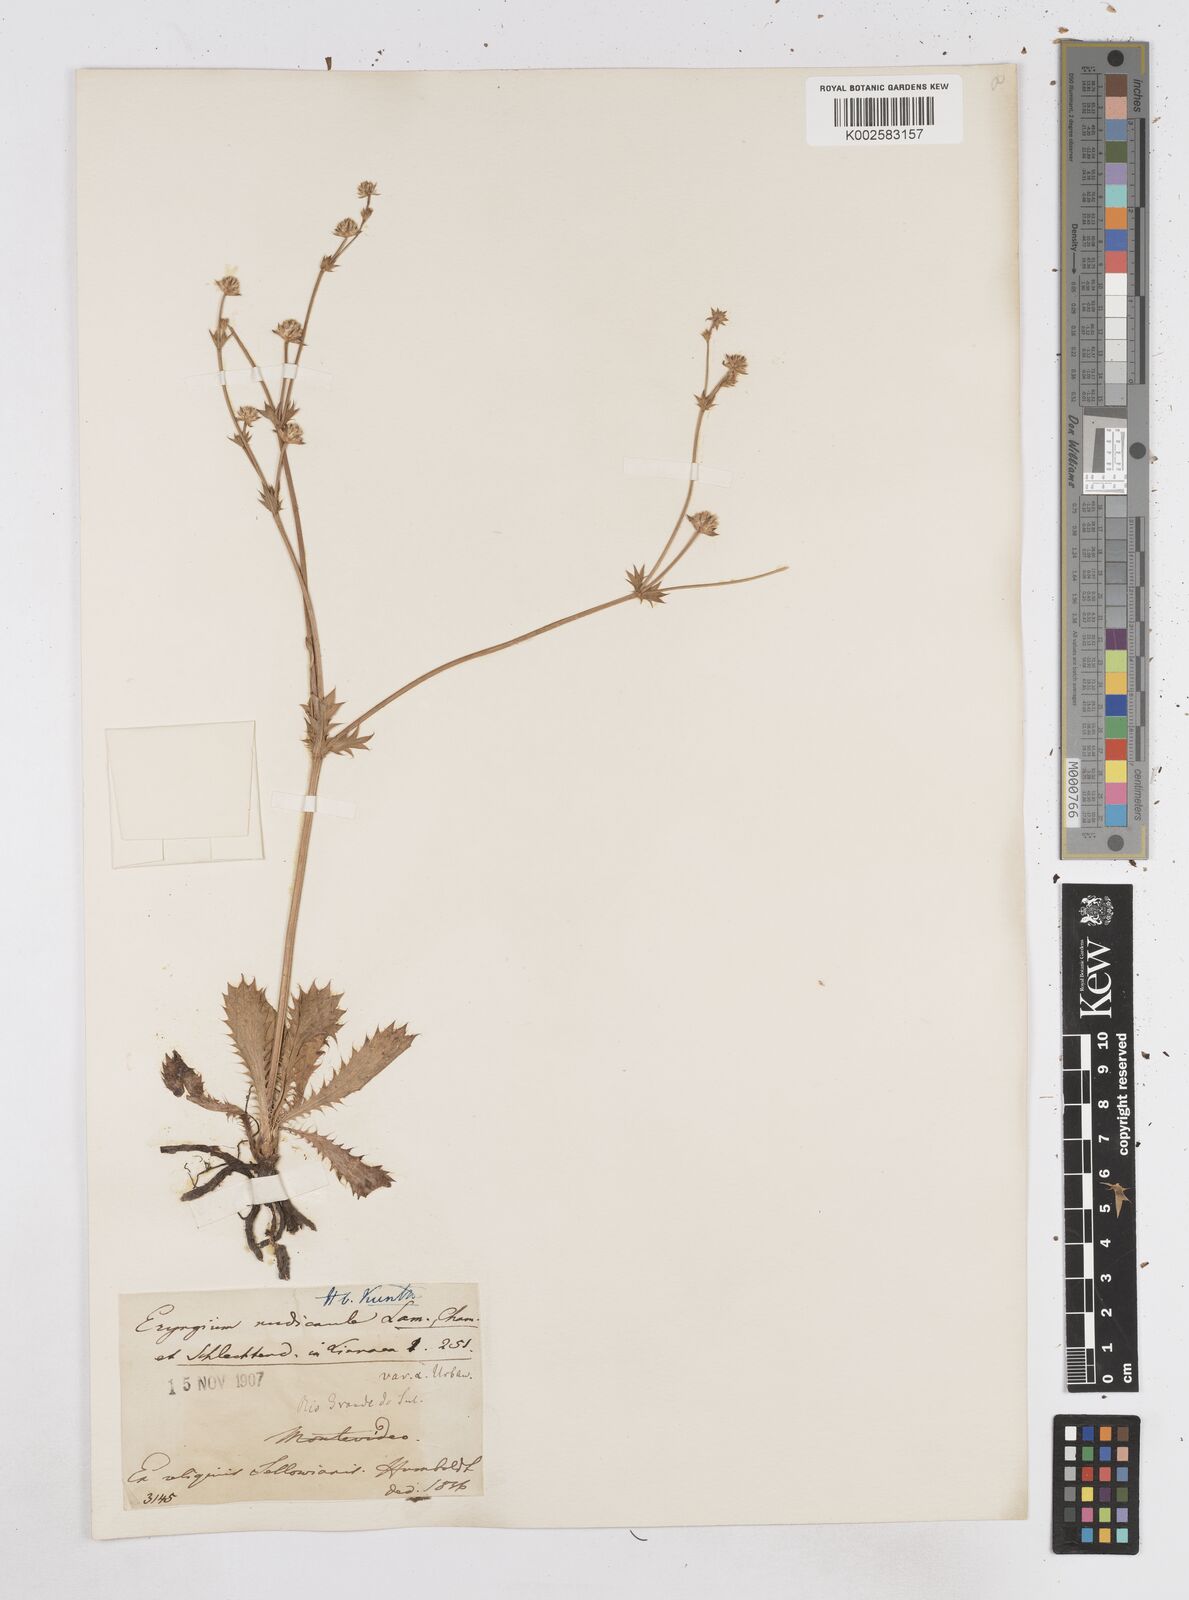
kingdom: Plantae
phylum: Tracheophyta
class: Magnoliopsida
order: Apiales
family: Apiaceae
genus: Eryngium
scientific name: Eryngium nudicaule
